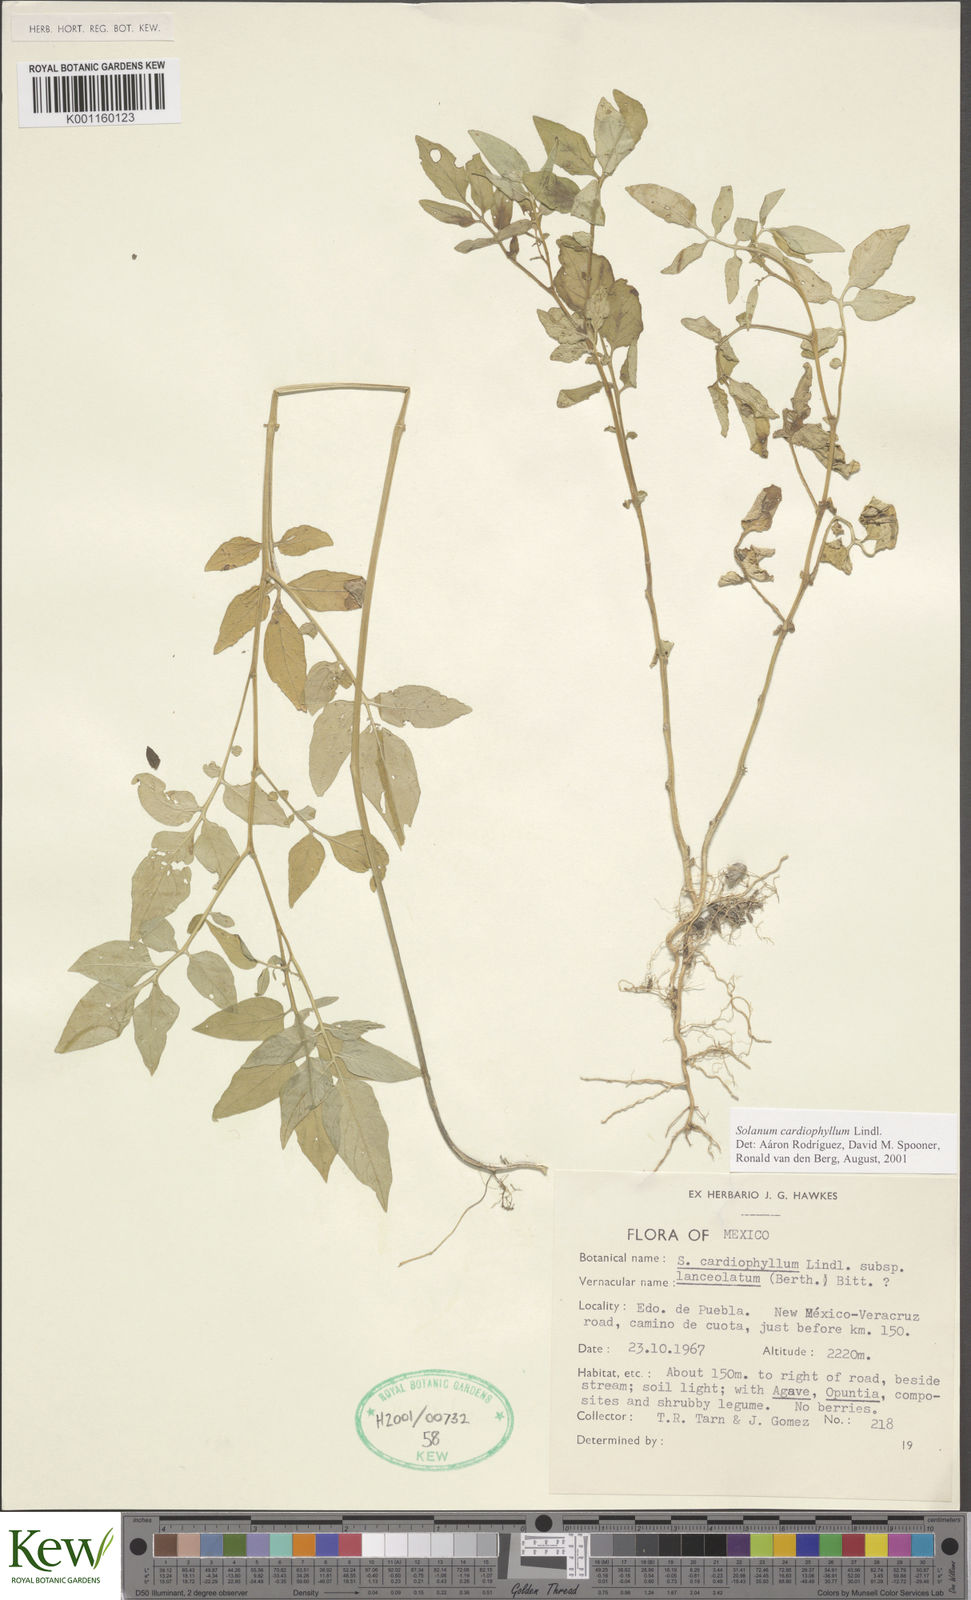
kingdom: Plantae
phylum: Tracheophyta
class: Magnoliopsida
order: Solanales
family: Solanaceae
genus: Solanum
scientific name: Solanum cardiophyllum
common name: Heartleaf horsenettle
